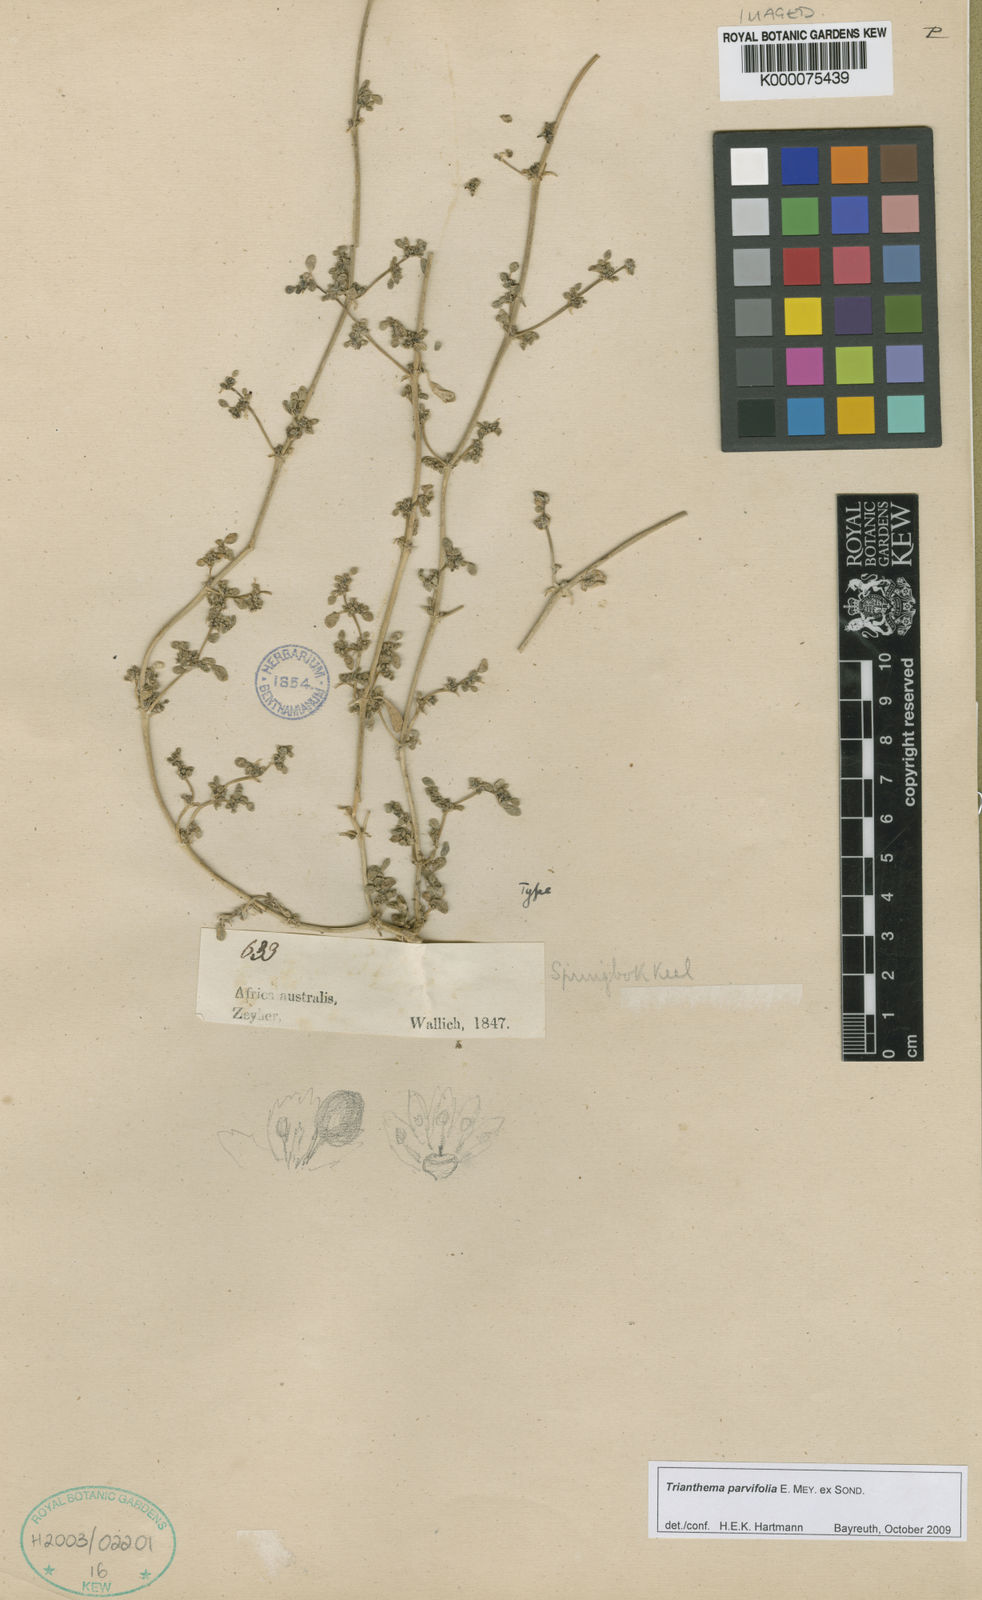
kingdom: Plantae
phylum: Tracheophyta
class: Magnoliopsida
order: Caryophyllales
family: Aizoaceae
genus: Trianthema
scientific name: Trianthema parvifolium
